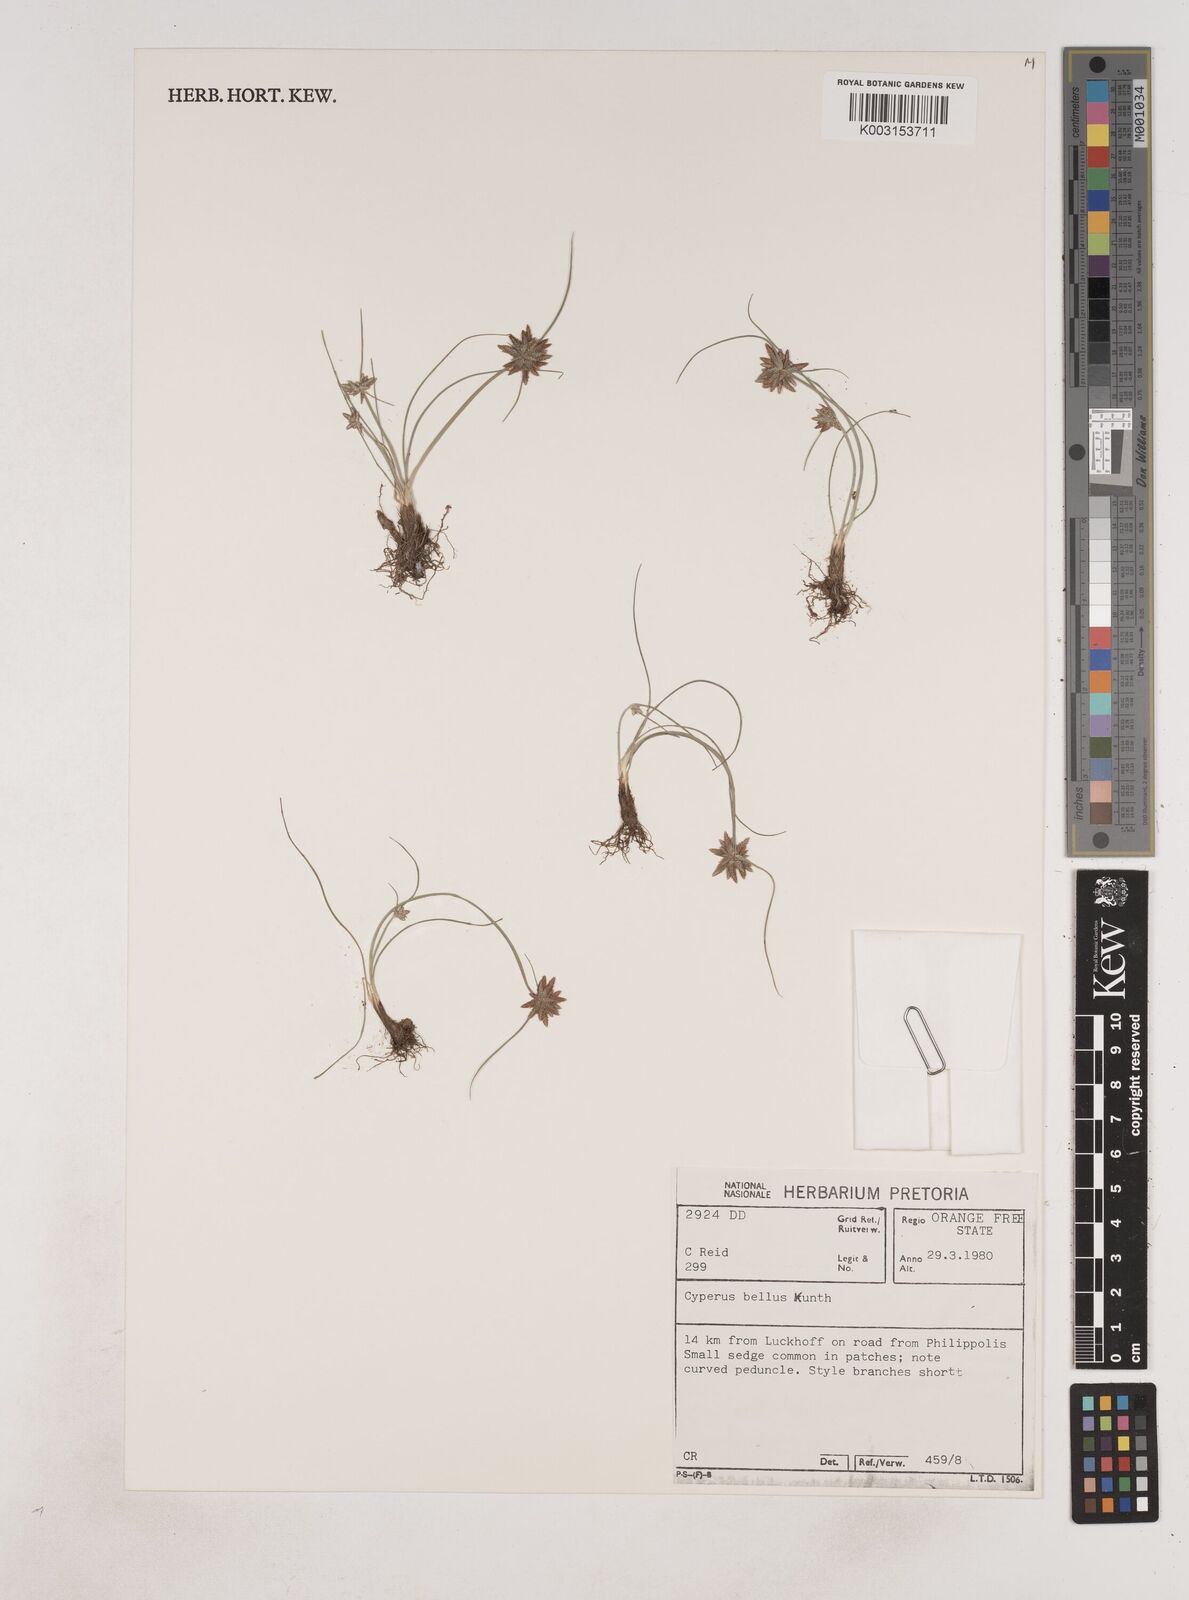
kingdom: Plantae
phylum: Tracheophyta
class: Liliopsida
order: Poales
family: Cyperaceae
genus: Cyperus
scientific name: Cyperus remotiflorus
